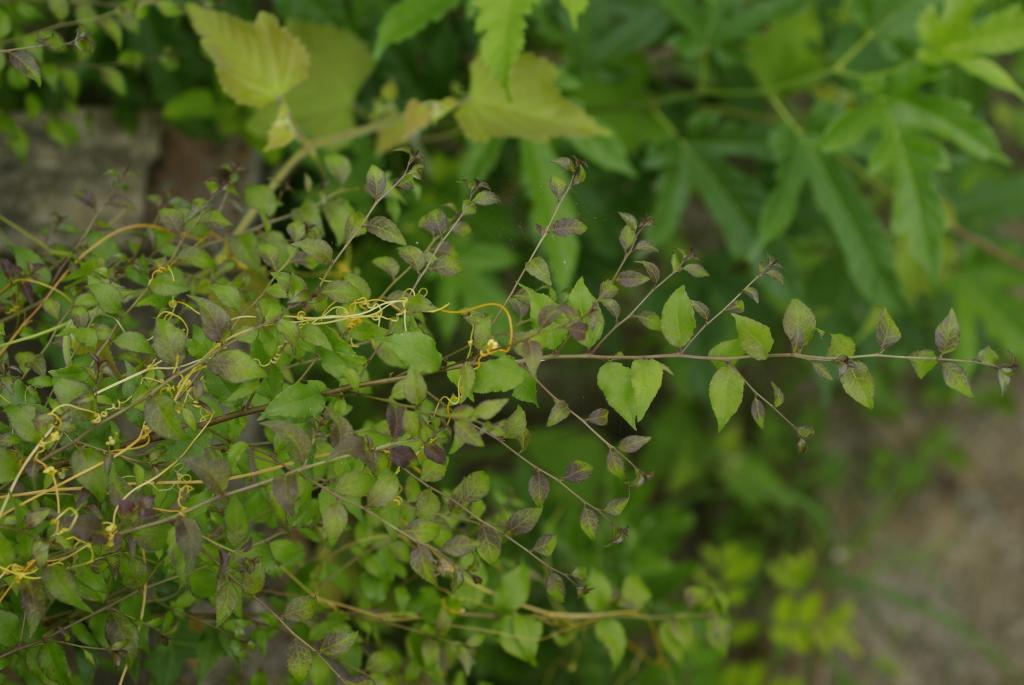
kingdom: Plantae
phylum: Tracheophyta
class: Magnoliopsida
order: Aquifoliales
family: Aquifoliaceae
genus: Ilex
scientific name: Ilex asprella
